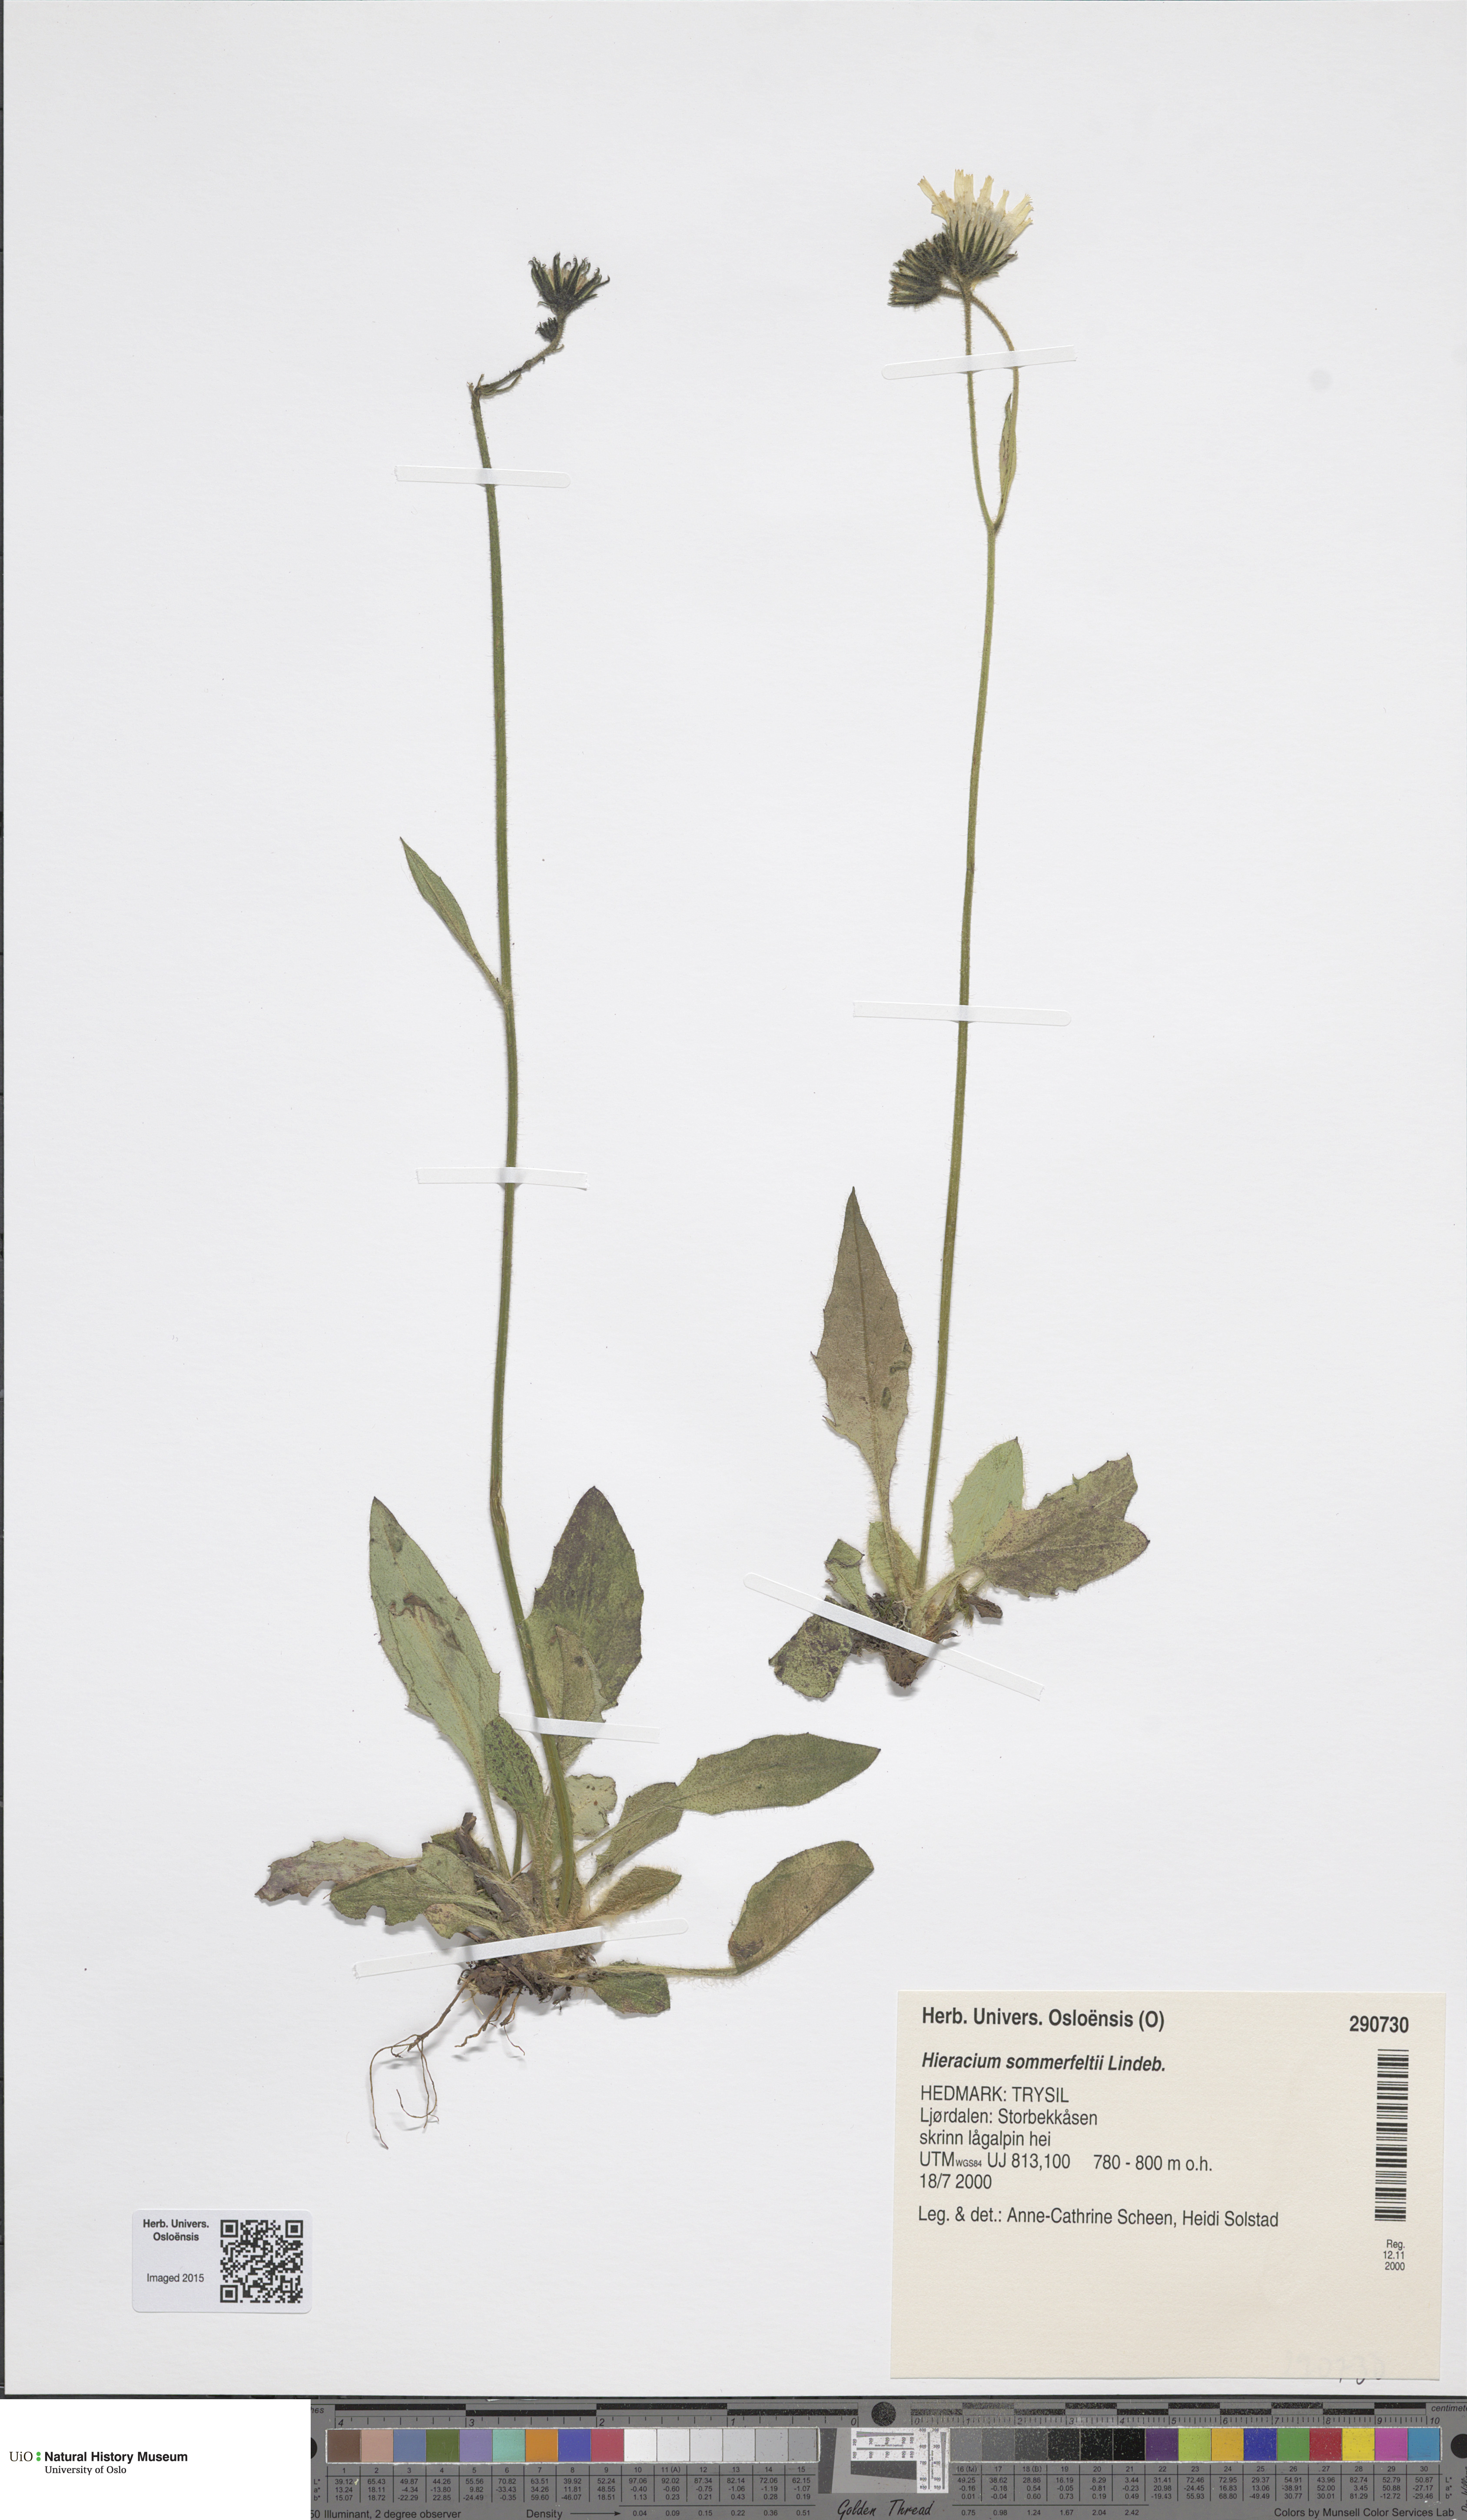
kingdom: Plantae
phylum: Tracheophyta
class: Magnoliopsida
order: Asterales
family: Asteraceae
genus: Hieracium
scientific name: Hieracium sommerfeltii
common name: Sommerfelt's hawkweed
